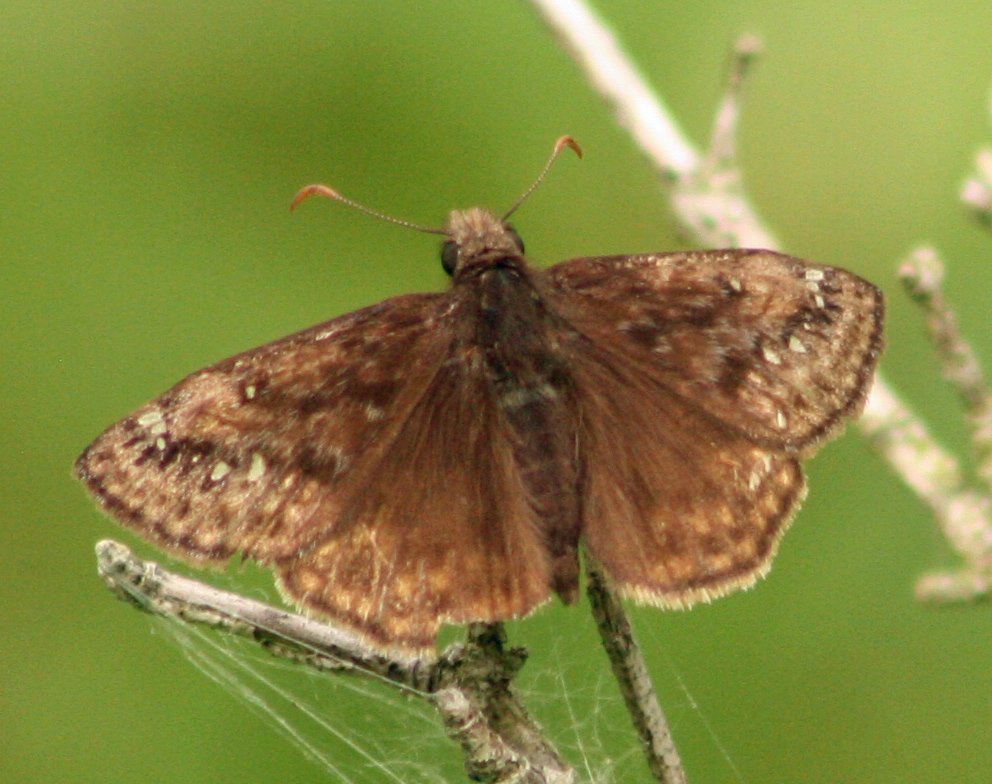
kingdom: Animalia
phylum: Arthropoda
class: Insecta
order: Lepidoptera
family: Hesperiidae
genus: Gesta
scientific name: Gesta
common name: Juvenal's Duskywing
